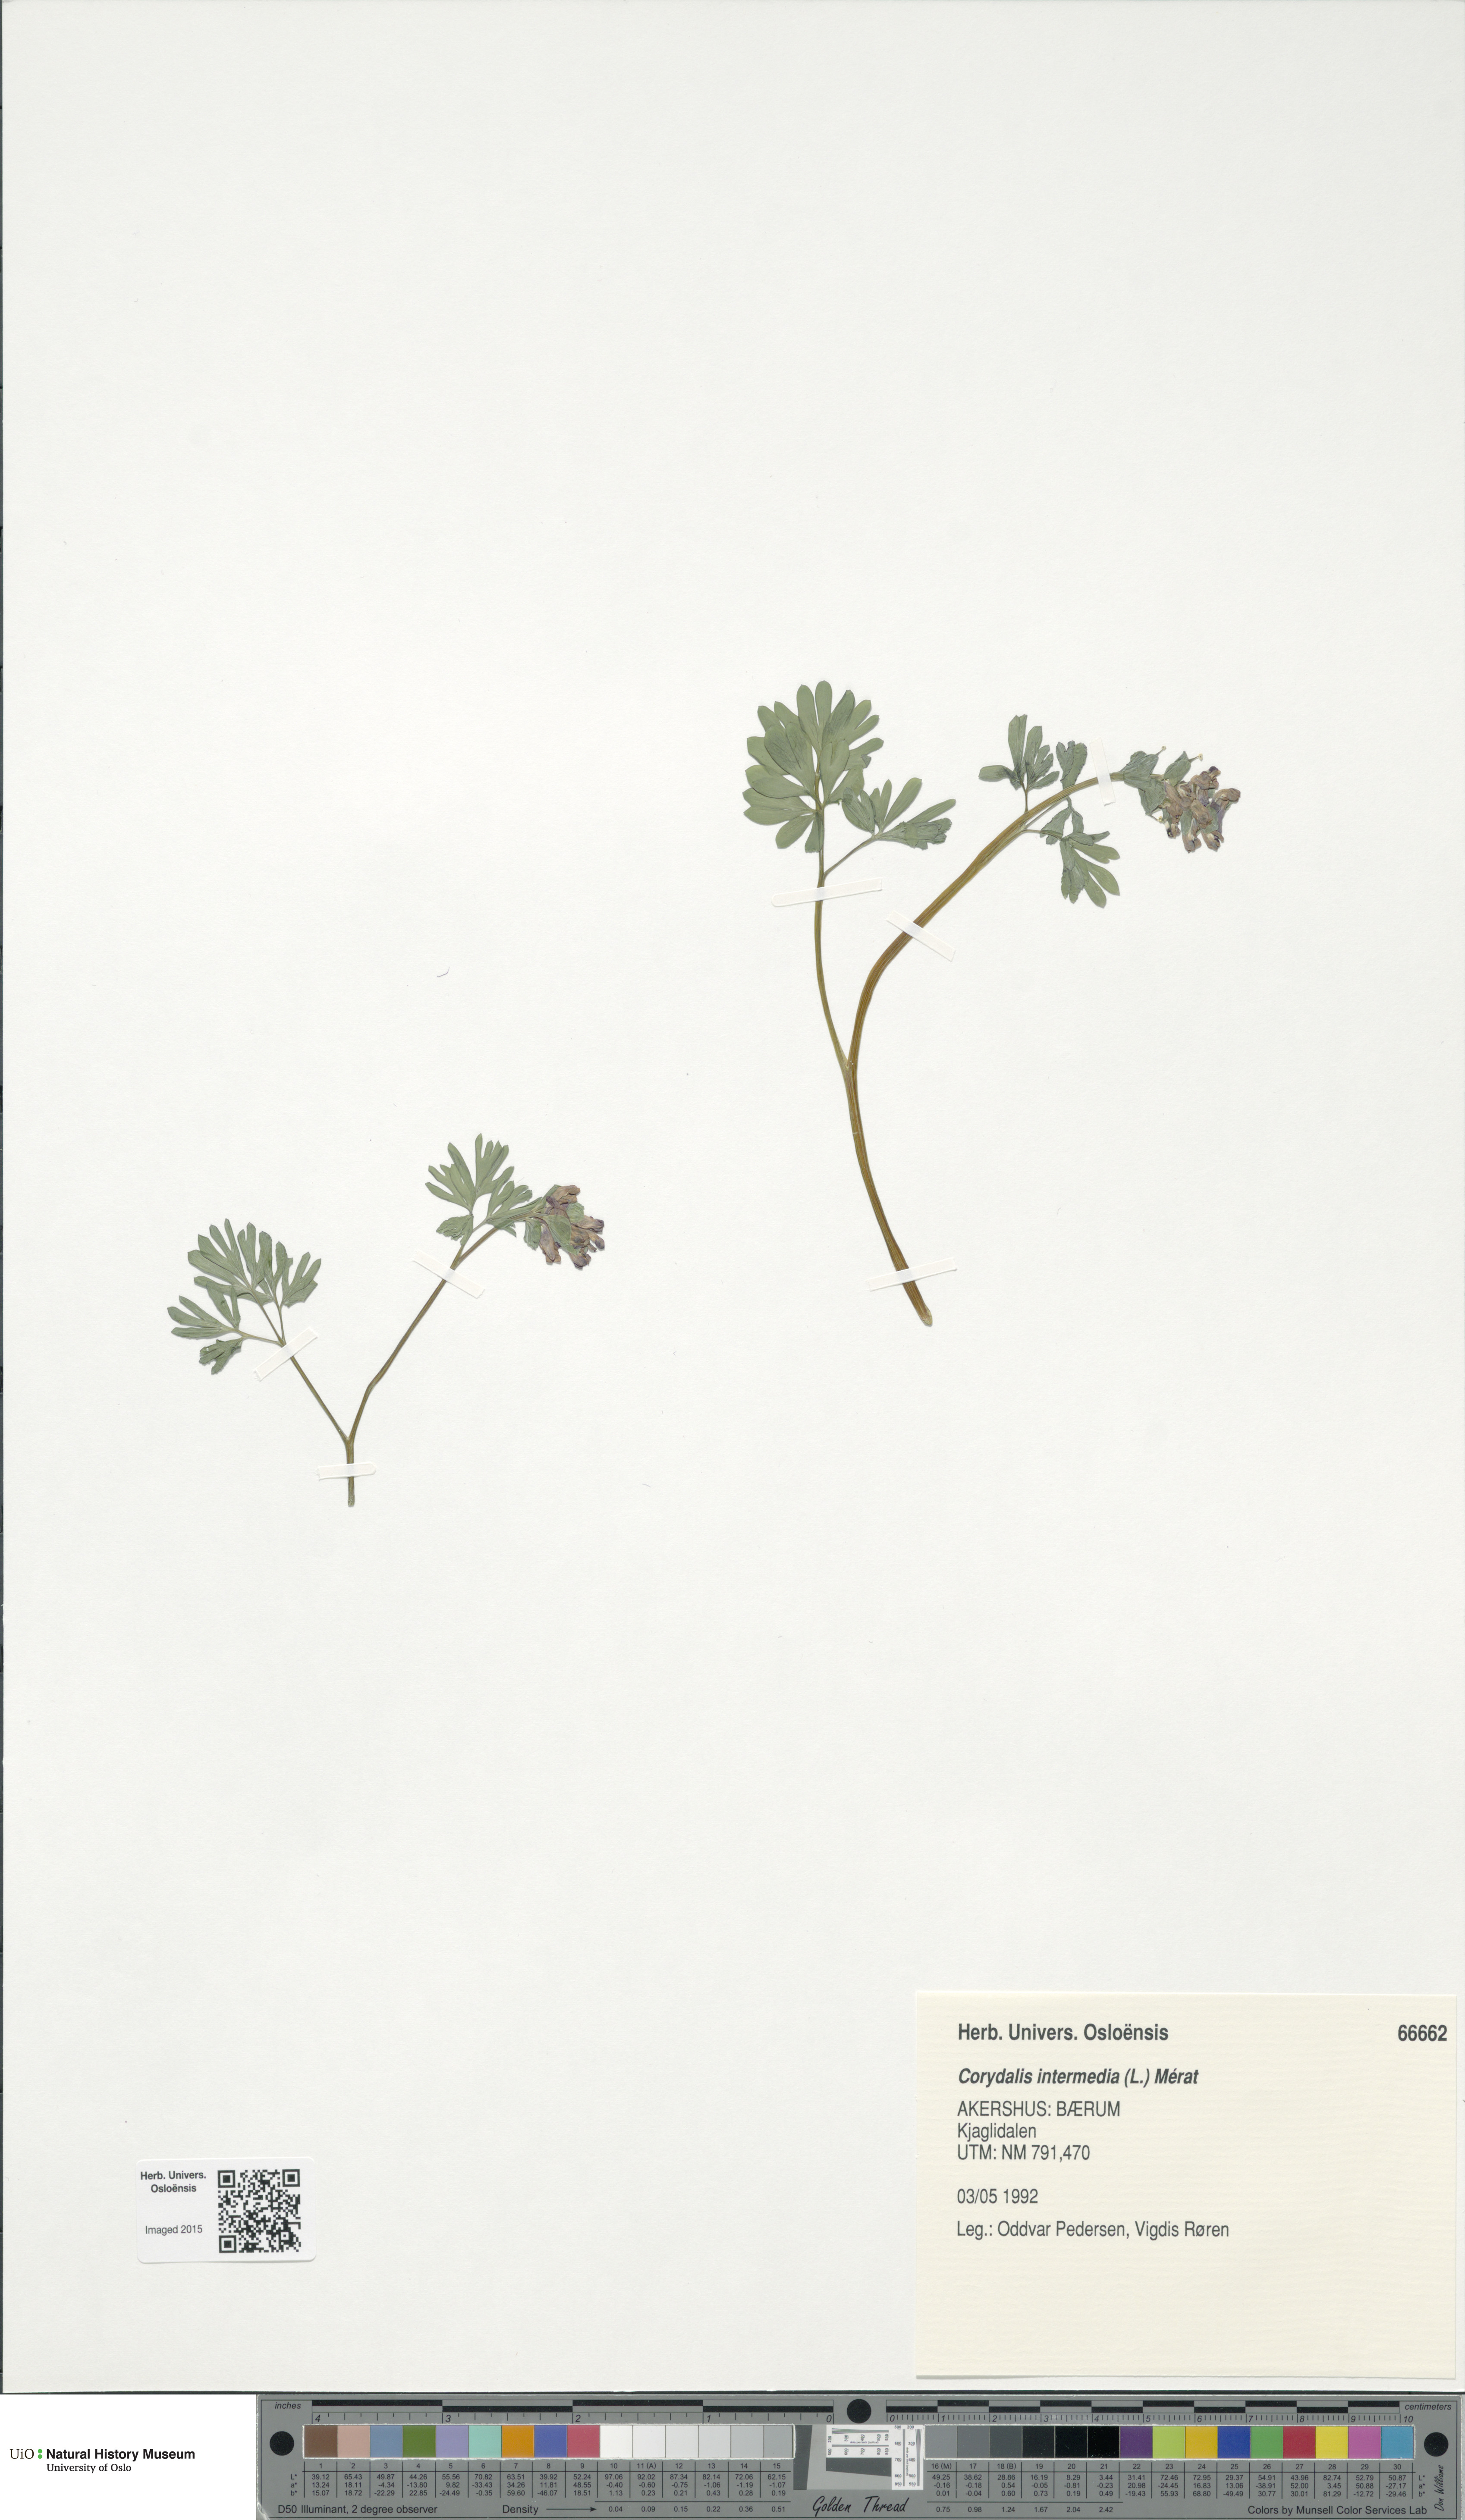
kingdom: Plantae
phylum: Tracheophyta
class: Magnoliopsida
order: Ranunculales
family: Papaveraceae
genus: Corydalis
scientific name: Corydalis intermedia
